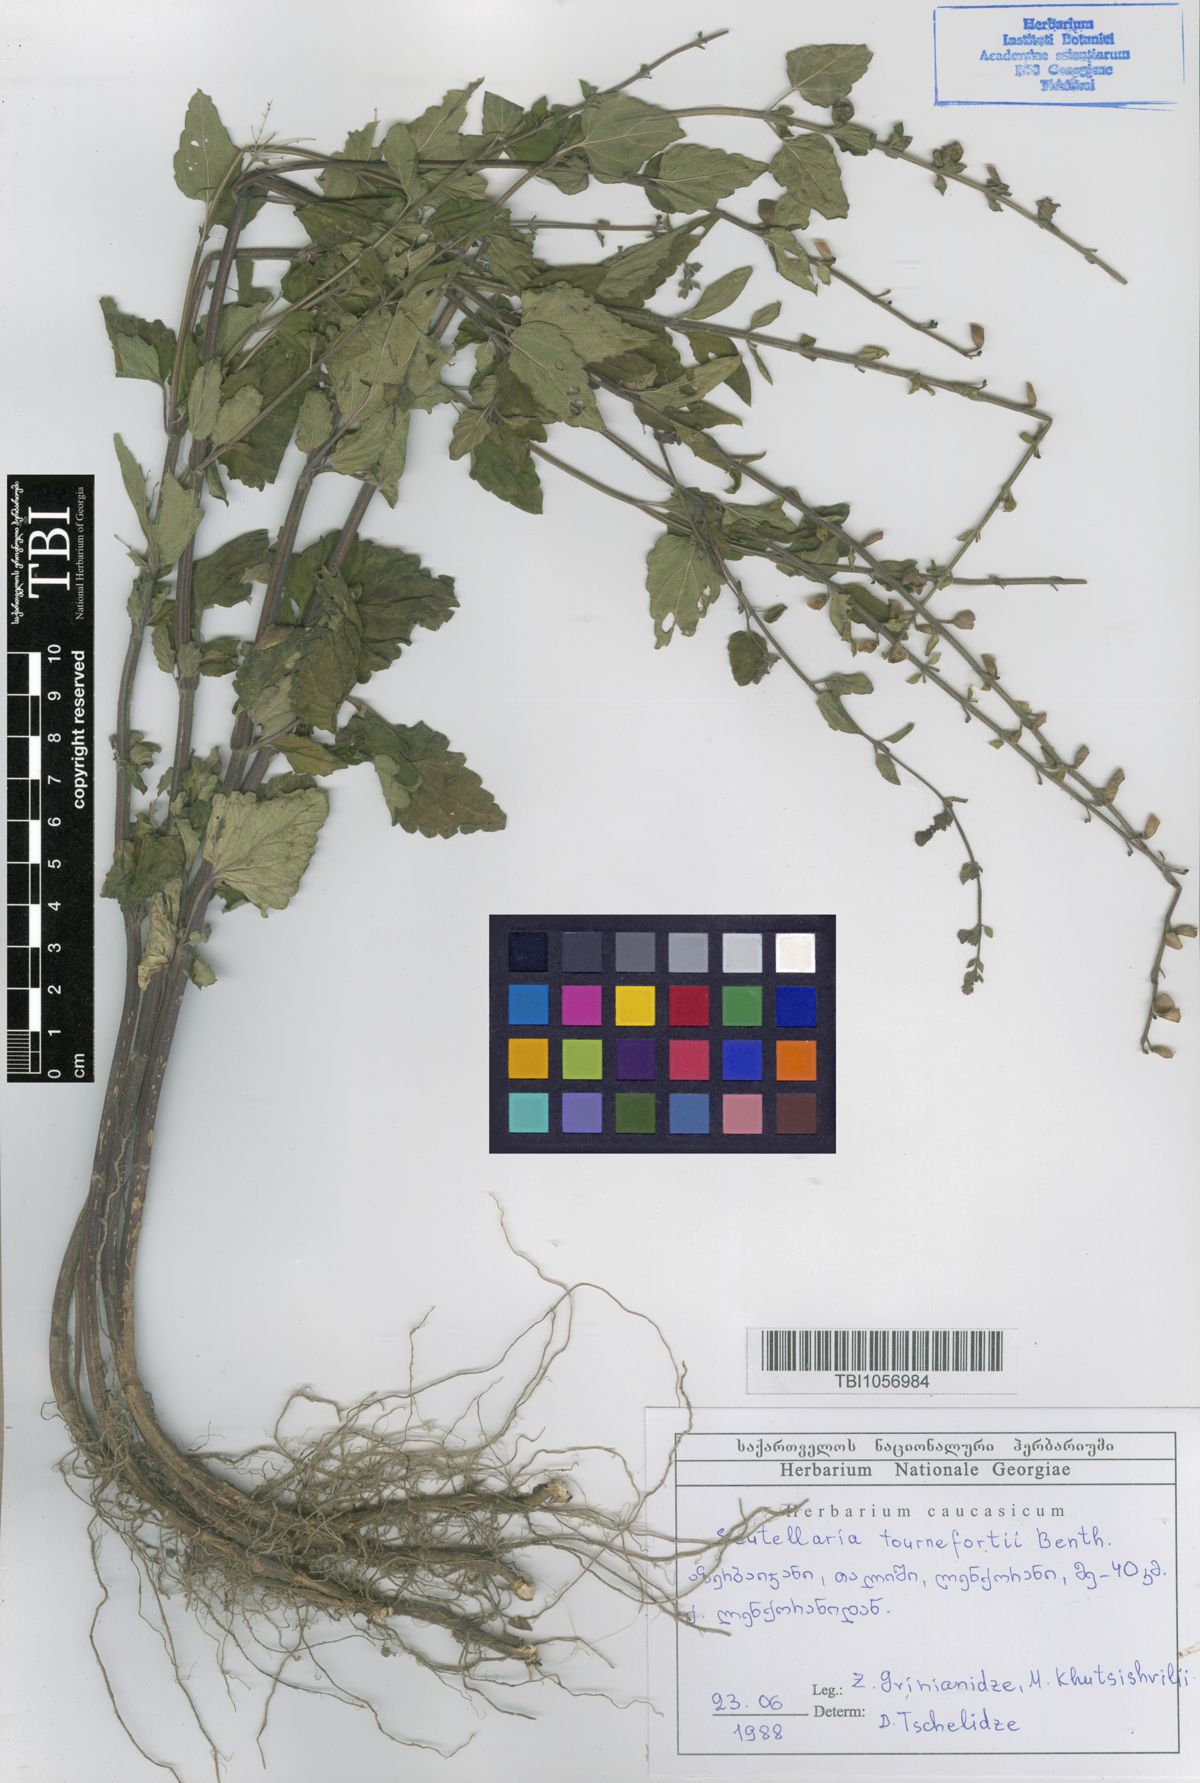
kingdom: Plantae
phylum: Tracheophyta
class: Magnoliopsida
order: Lamiales
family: Lamiaceae
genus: Scutellaria
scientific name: Scutellaria tournefortii
